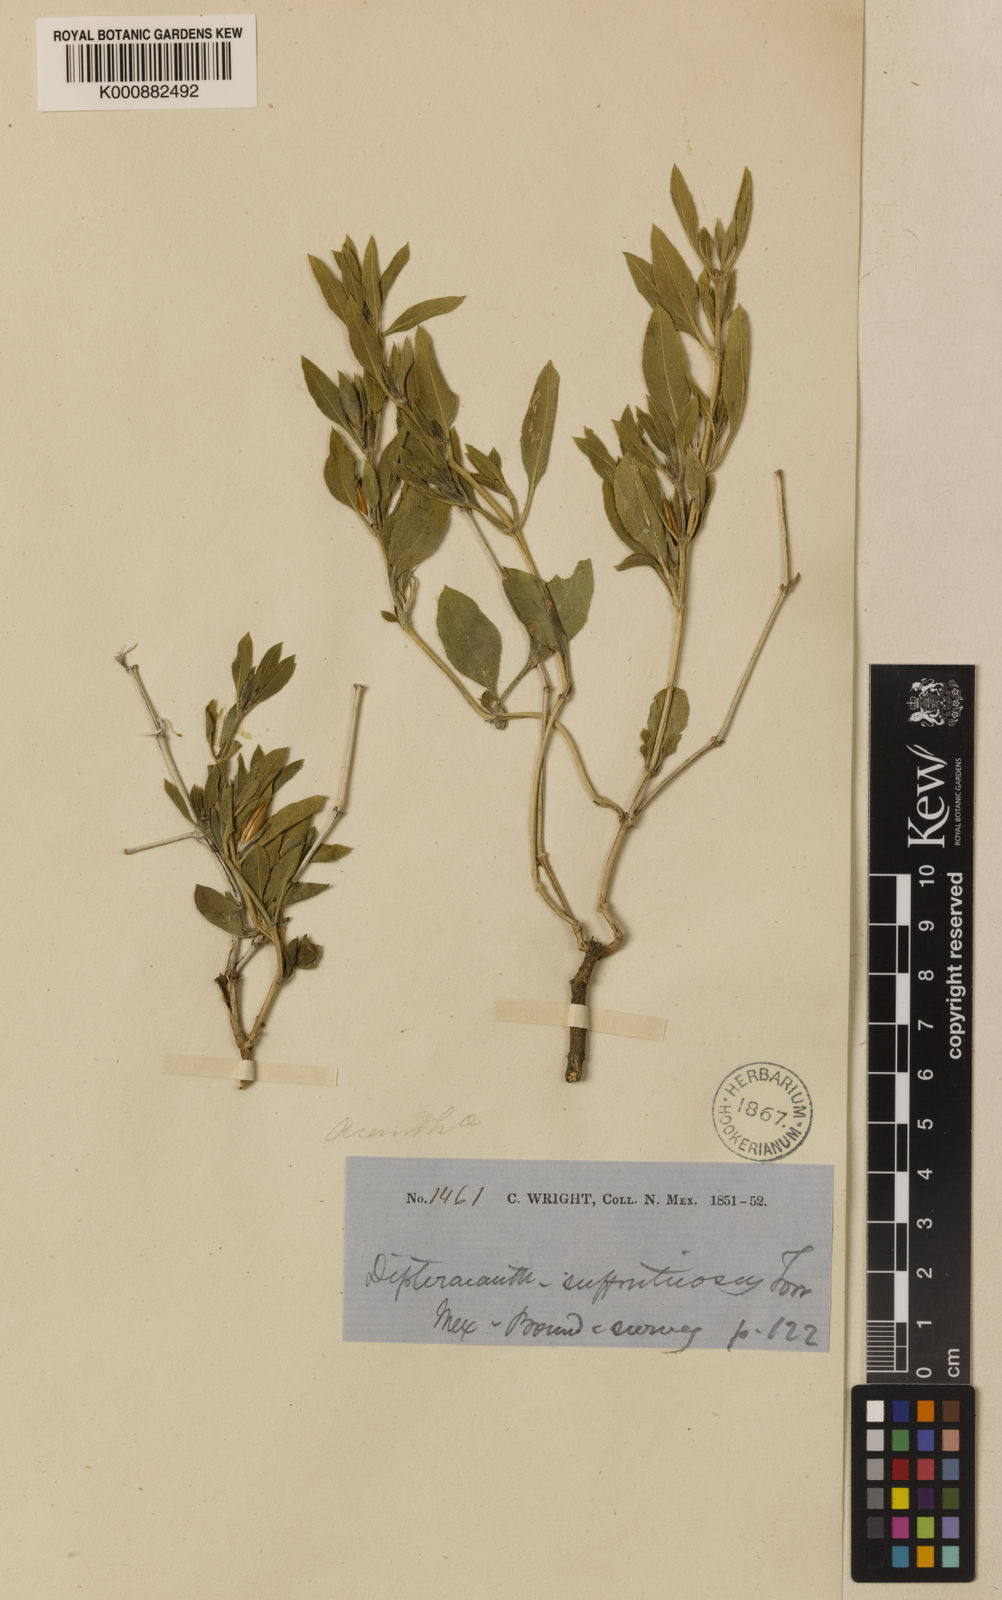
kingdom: Plantae
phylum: Tracheophyta
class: Magnoliopsida
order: Lamiales
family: Acanthaceae
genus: Ruellia
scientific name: Ruellia suffruticosa
